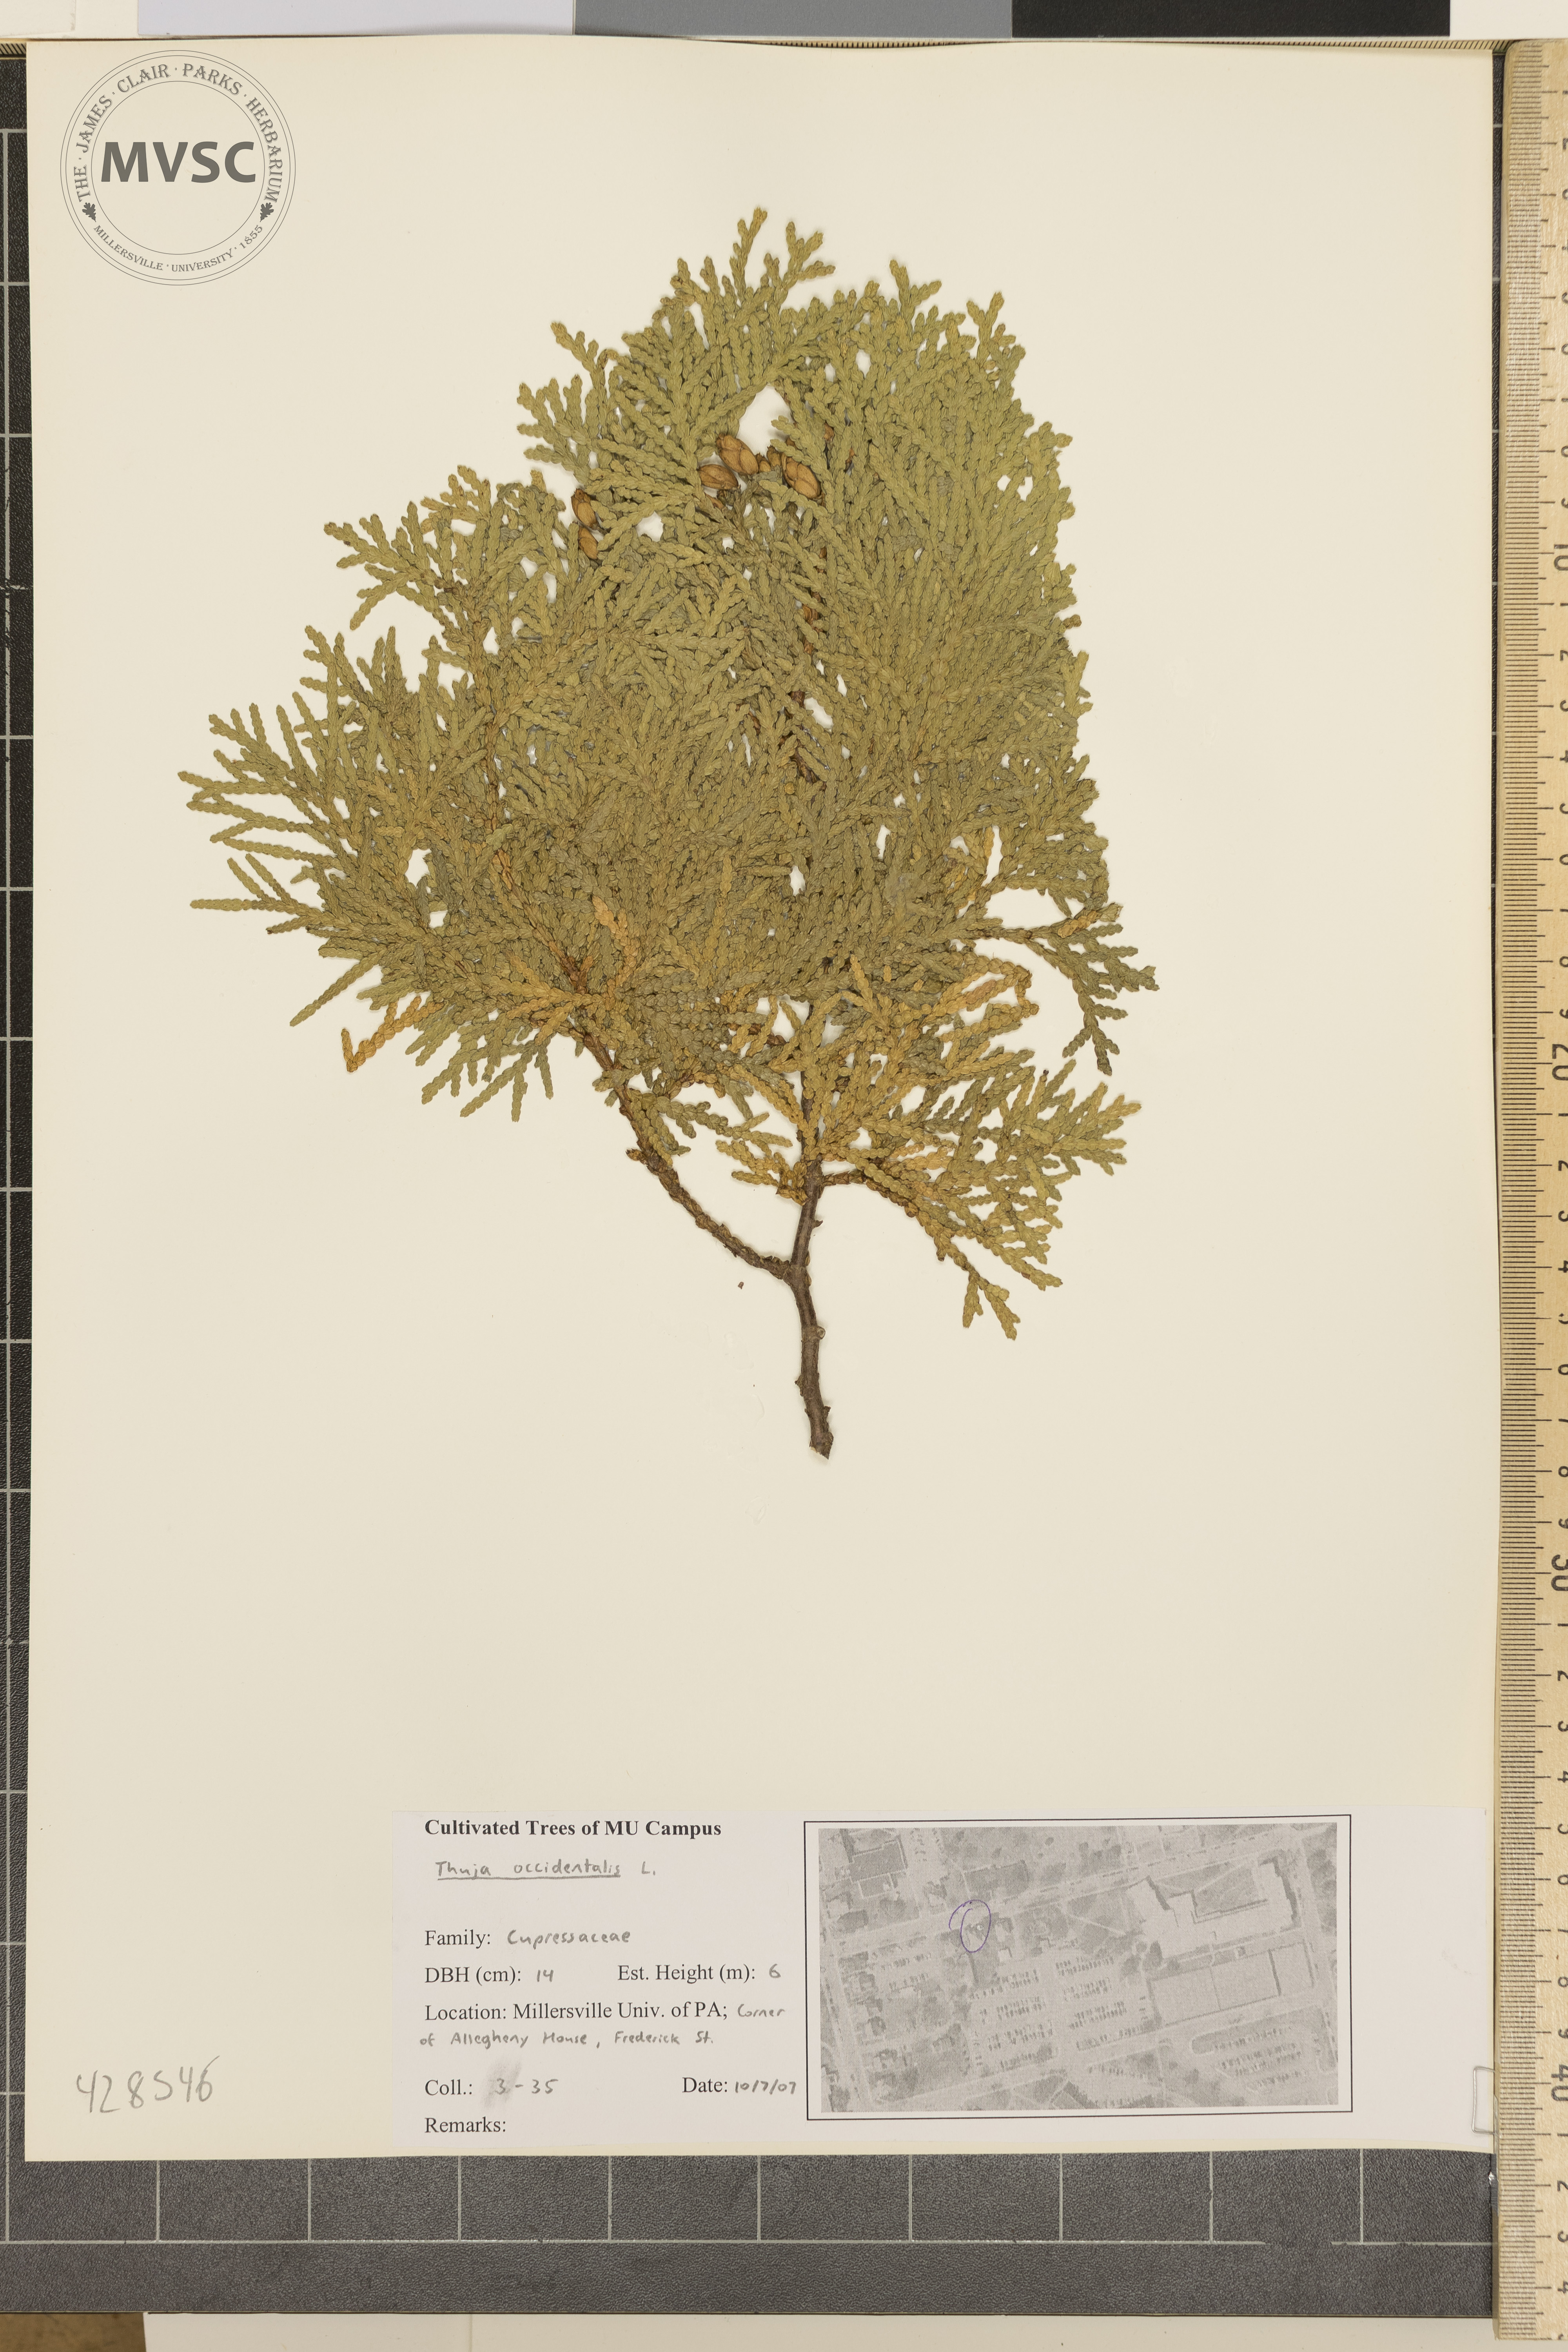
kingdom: Plantae
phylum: Tracheophyta
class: Pinopsida
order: Pinales
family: Cupressaceae
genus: Thuja
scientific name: Thuja occidentalis
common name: Arborvitae
